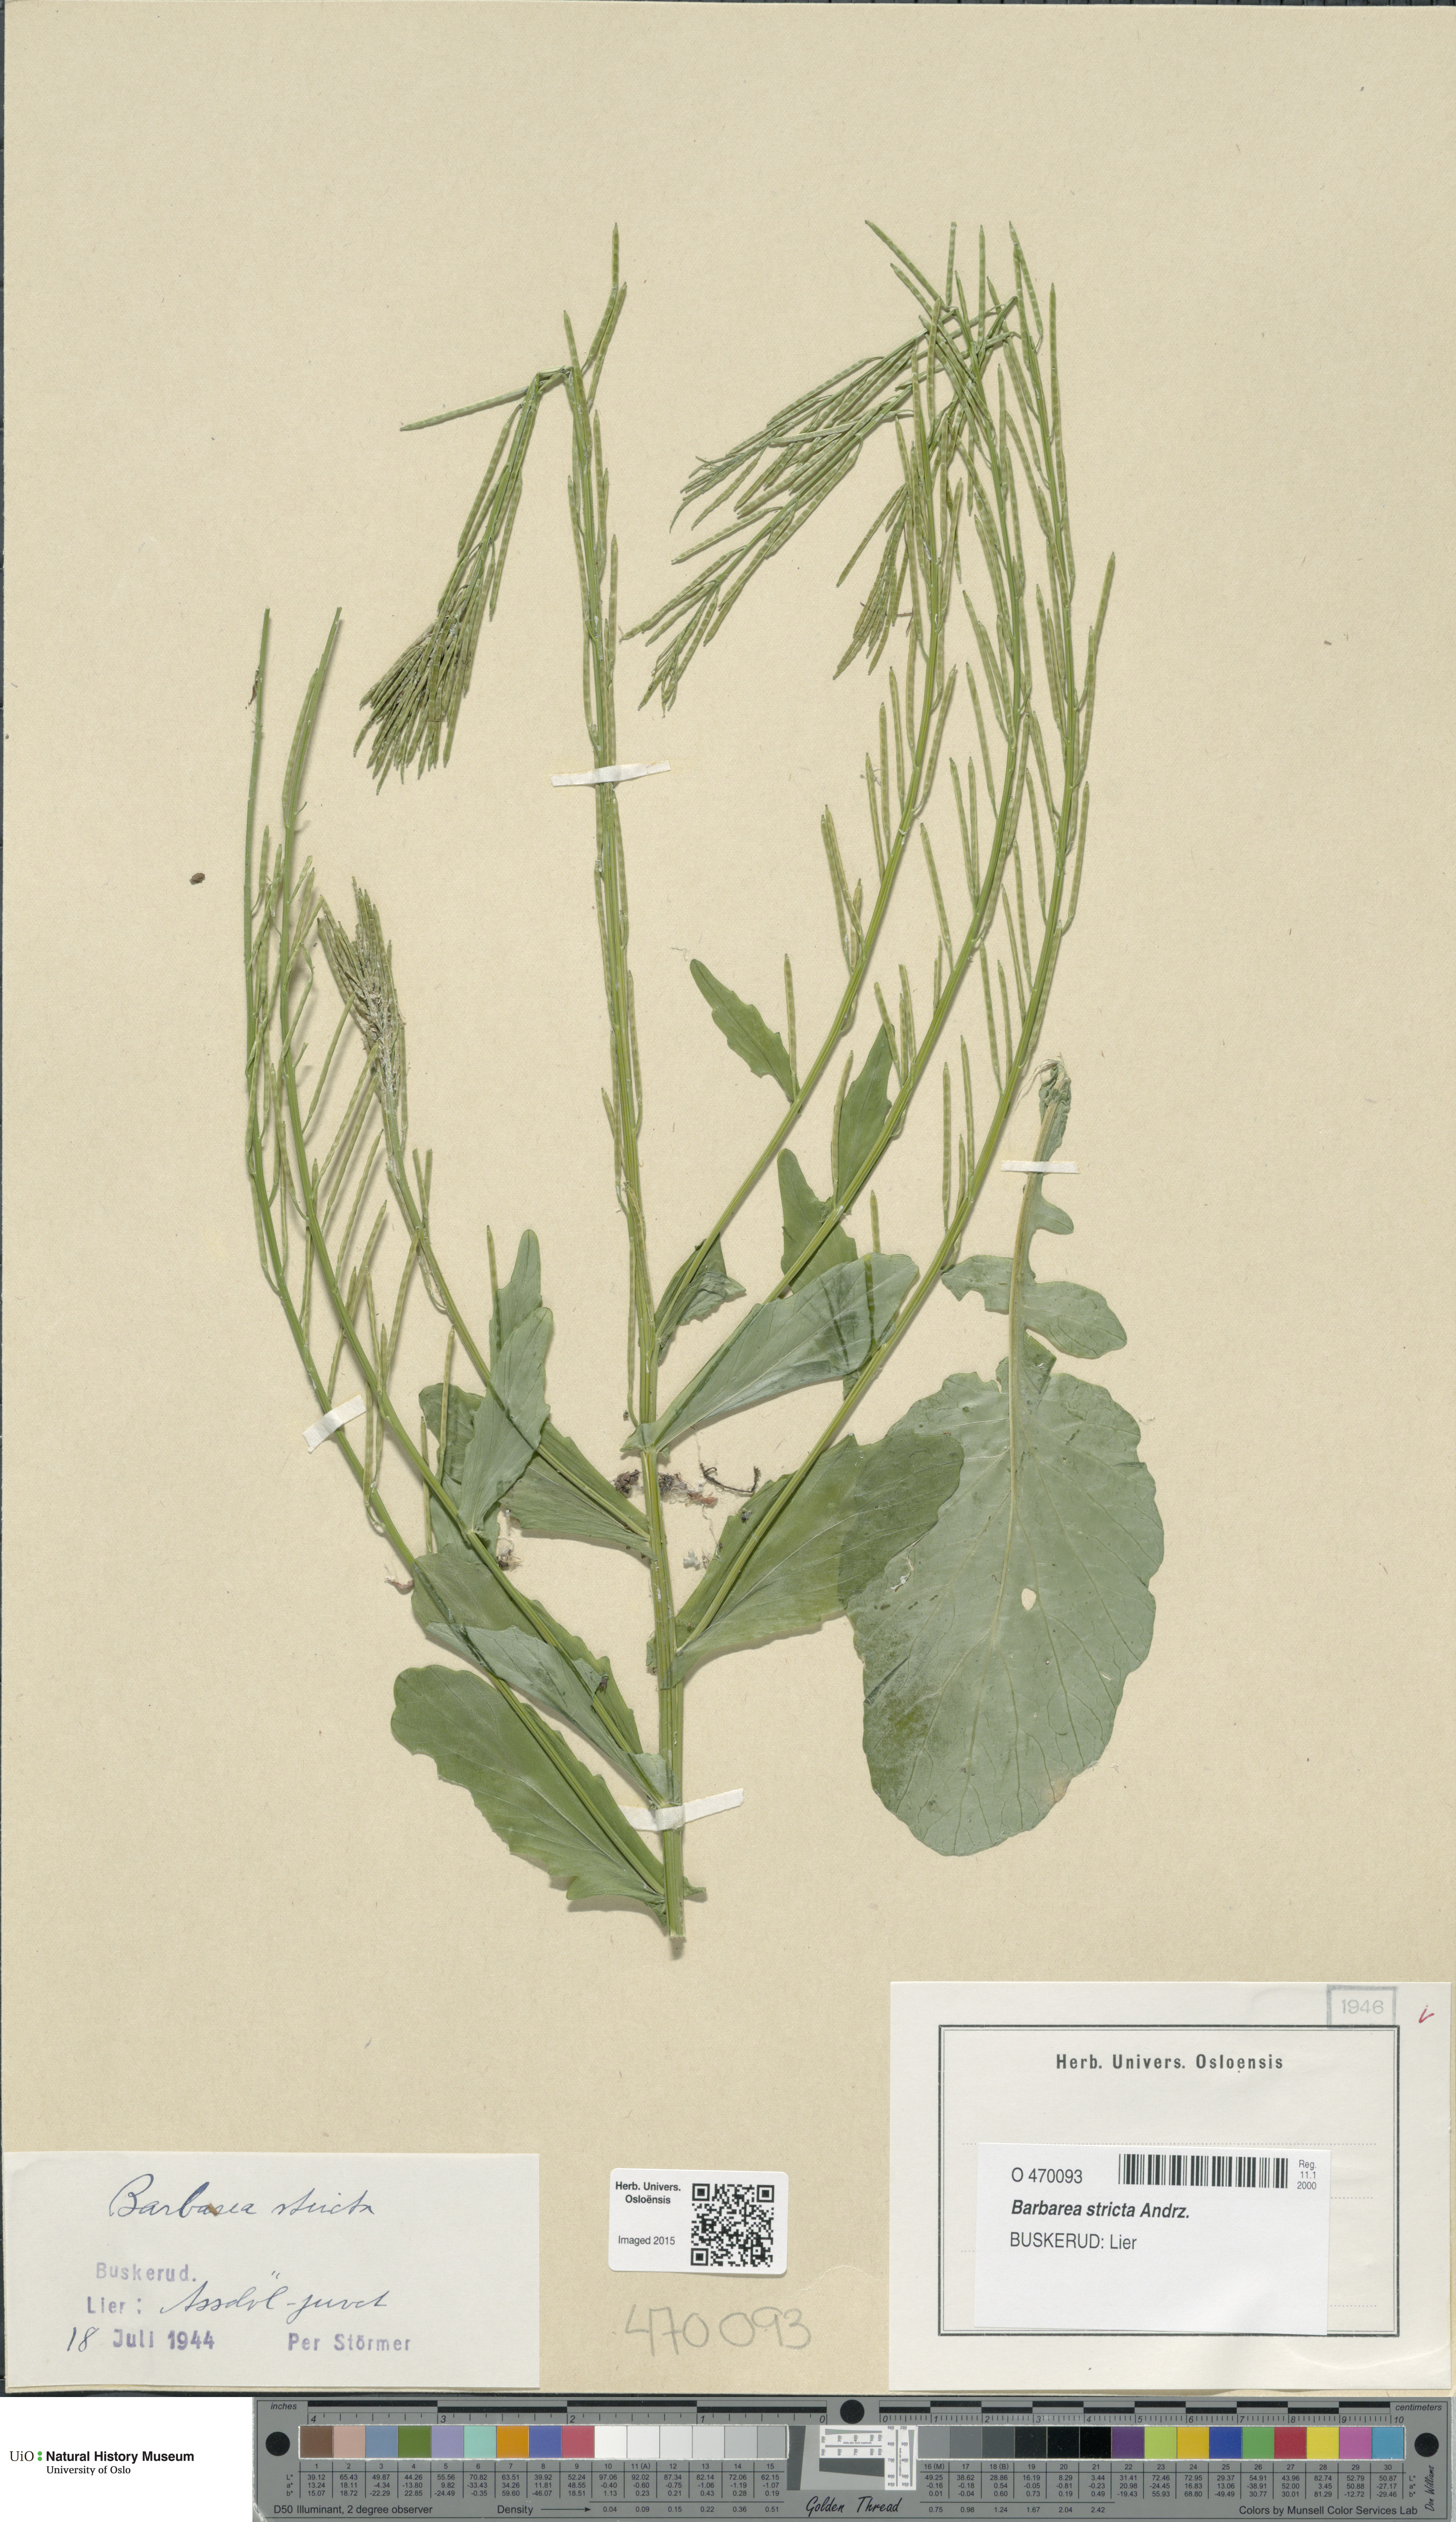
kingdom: Plantae
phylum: Tracheophyta
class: Magnoliopsida
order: Brassicales
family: Brassicaceae
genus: Barbarea
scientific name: Barbarea stricta
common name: Small-flowered winter-cress
